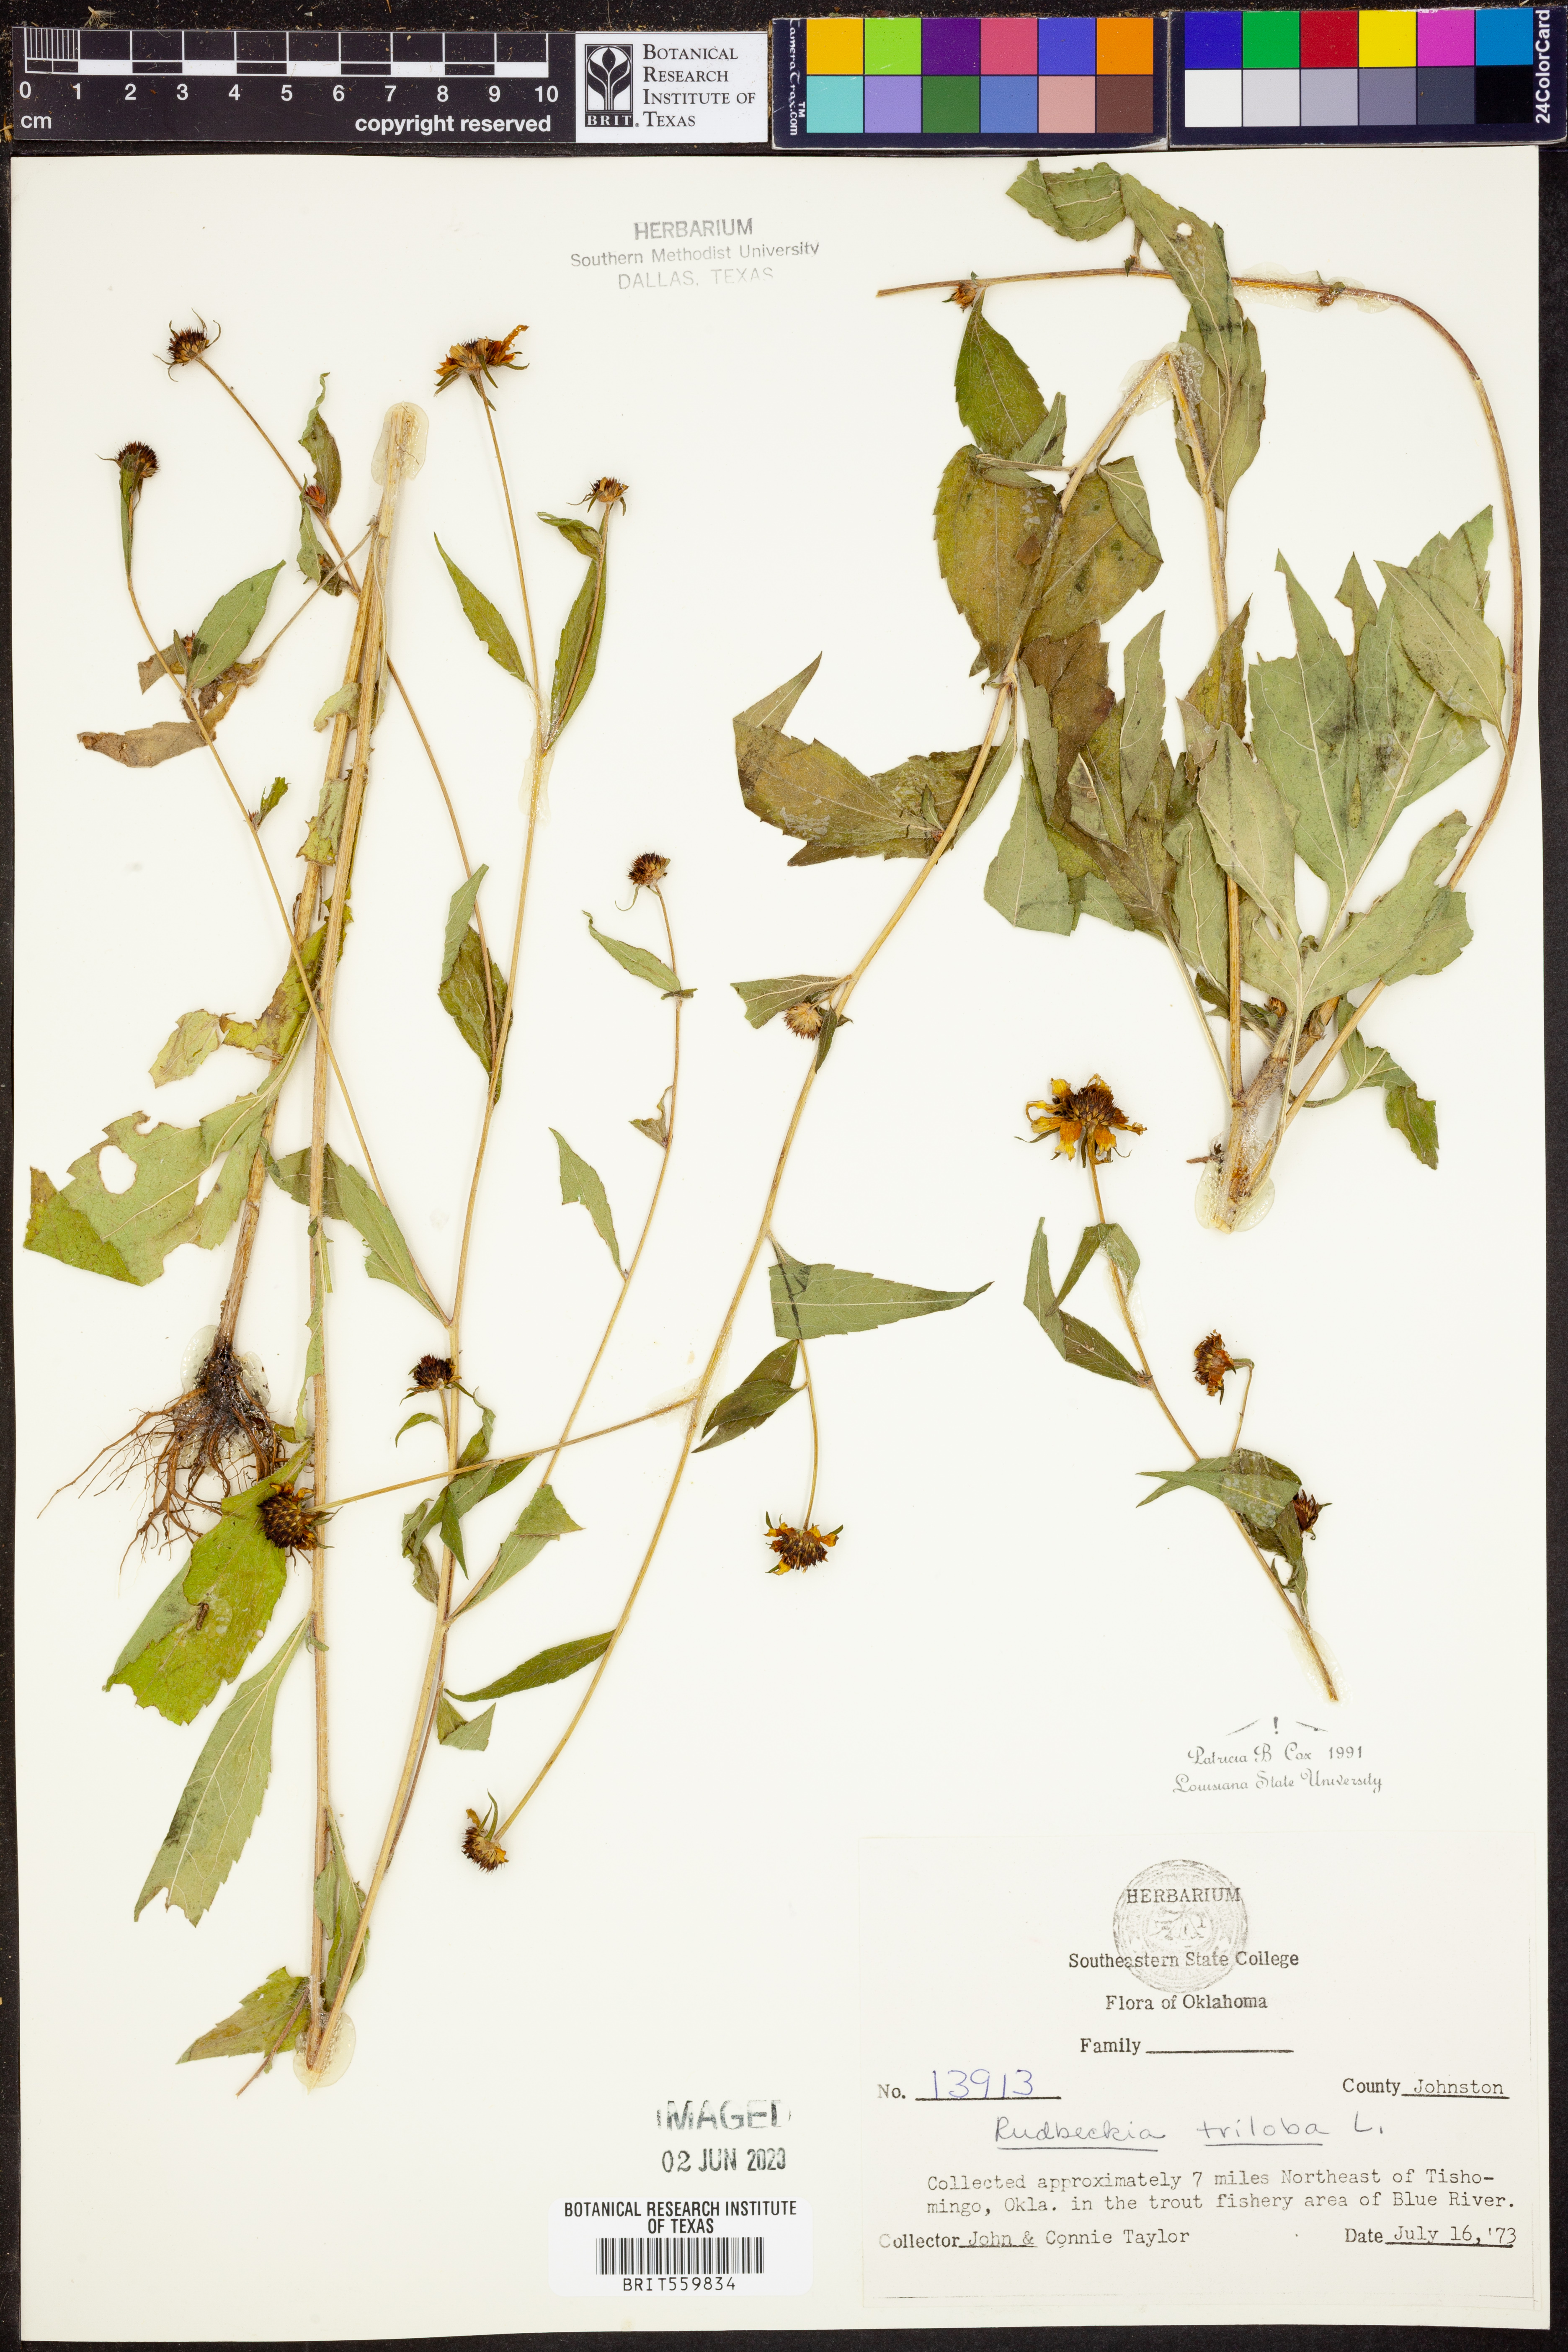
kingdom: Plantae
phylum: Tracheophyta
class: Magnoliopsida
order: Asterales
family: Asteraceae
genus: Rudbeckia
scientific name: Rudbeckia triloba
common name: Thin-leaved coneflower
